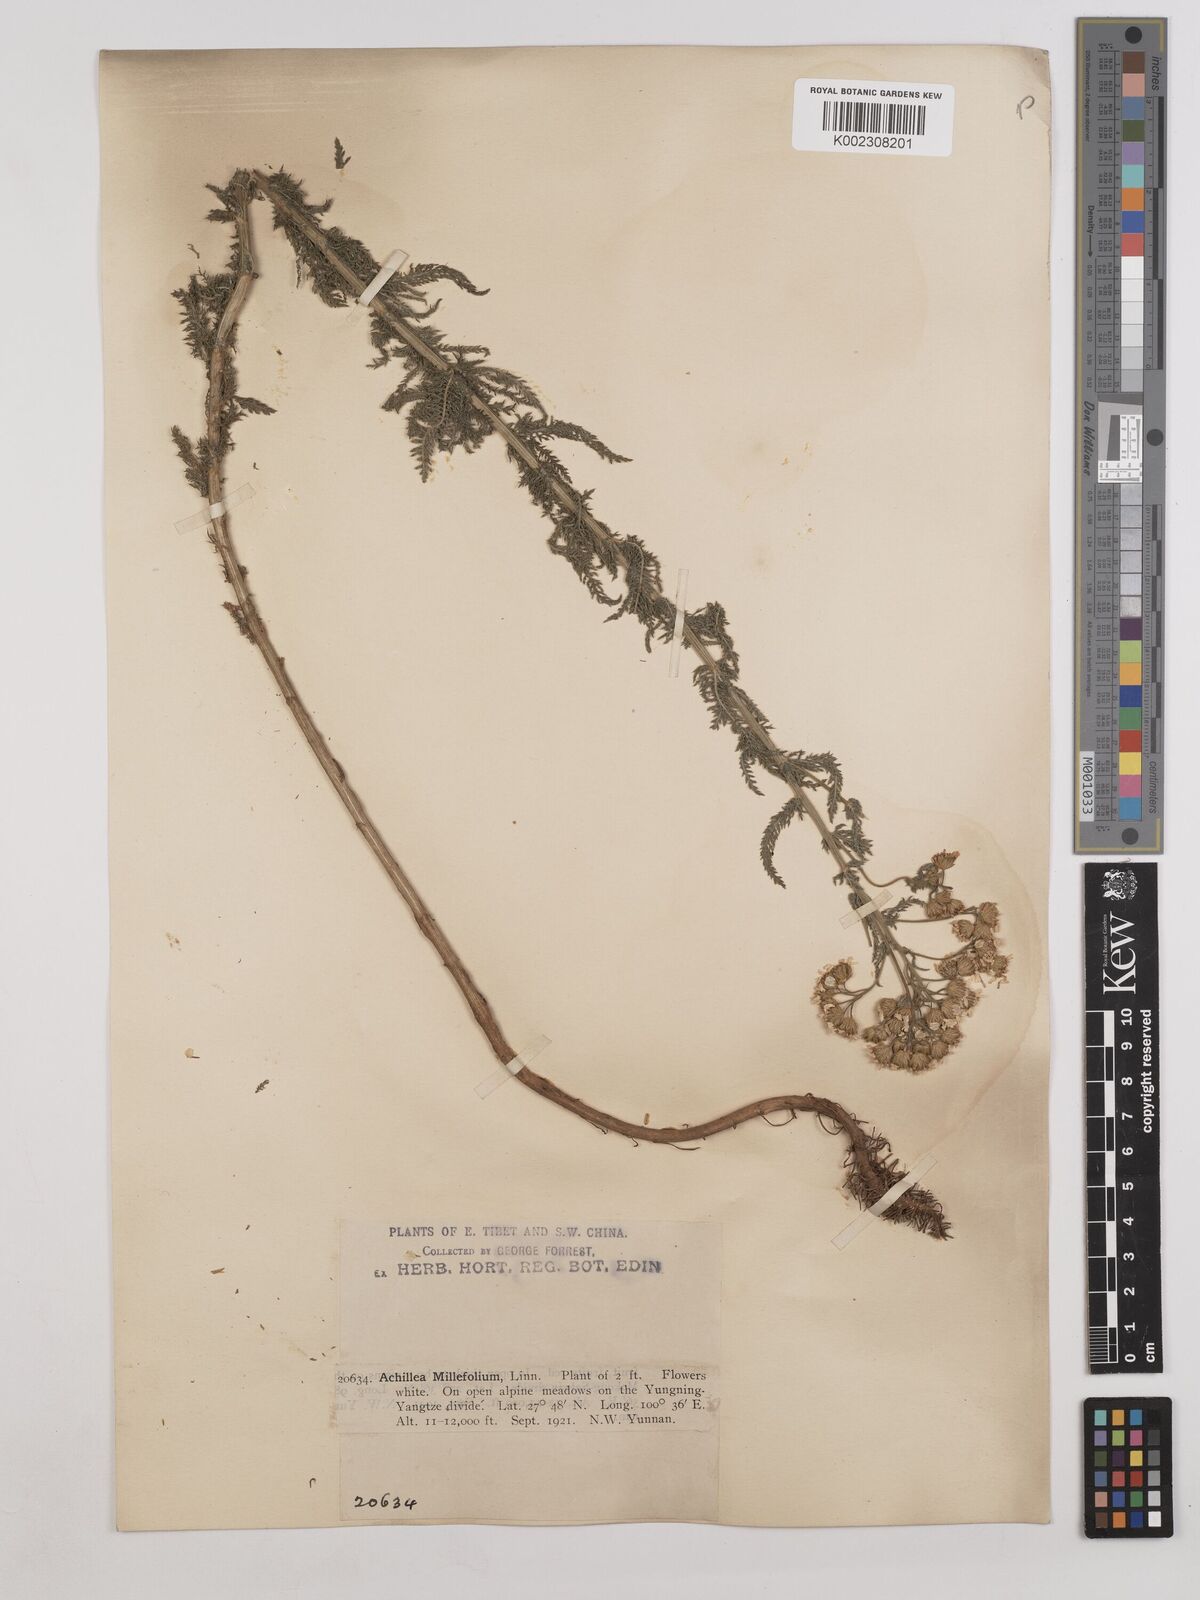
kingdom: Plantae
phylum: Tracheophyta
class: Magnoliopsida
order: Asterales
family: Asteraceae
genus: Achillea
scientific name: Achillea alpina
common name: Siberian yarrow
